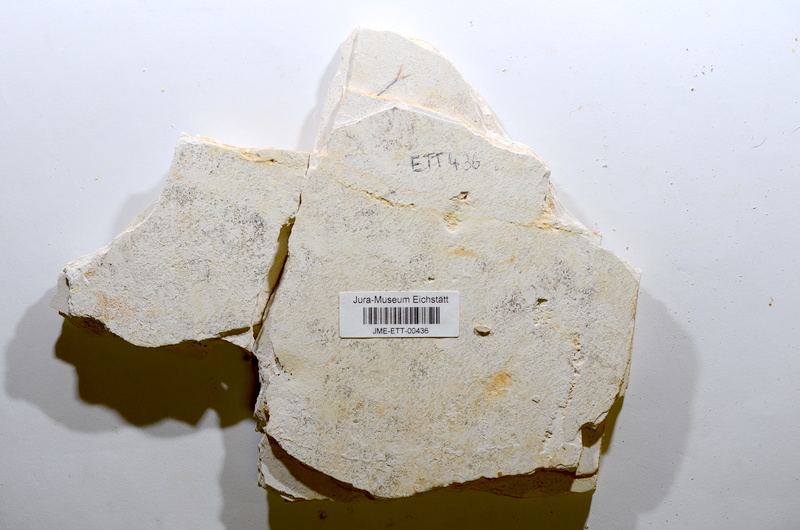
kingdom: Animalia
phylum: Chordata
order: Salmoniformes
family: Orthogonikleithridae
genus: Orthogonikleithrus
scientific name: Orthogonikleithrus hoelli
